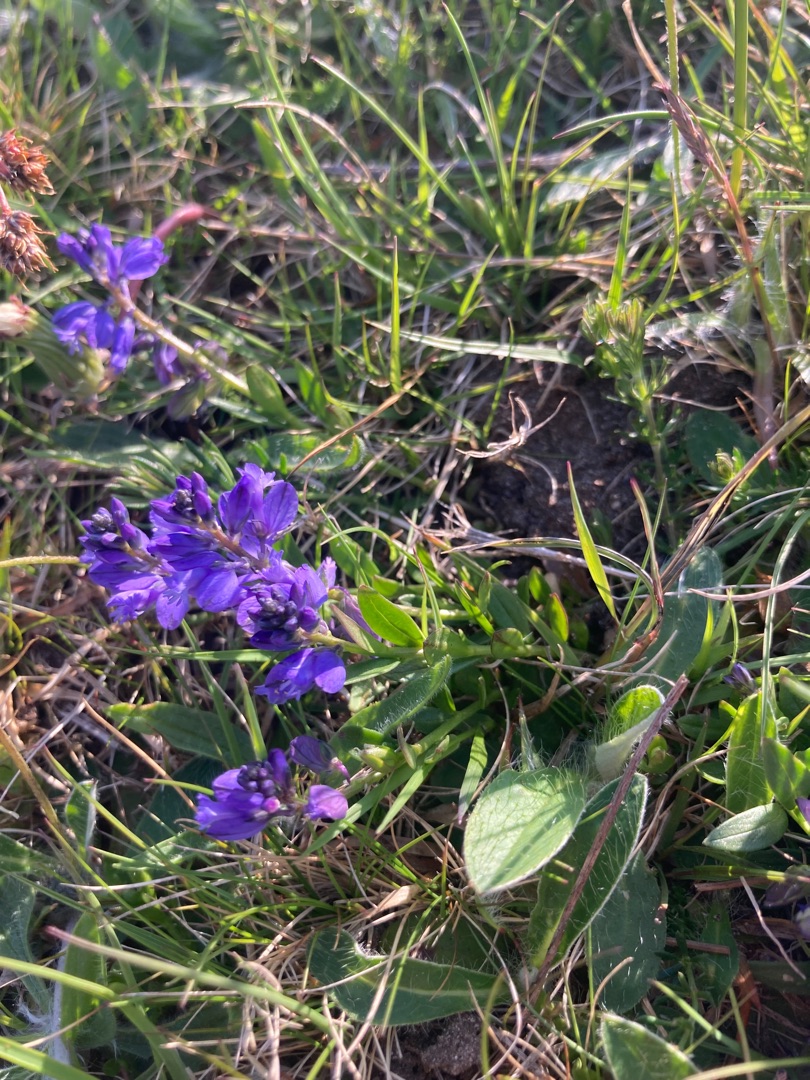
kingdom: Plantae
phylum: Tracheophyta
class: Magnoliopsida
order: Fabales
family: Polygalaceae
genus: Polygala
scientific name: Polygala vulgaris
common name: Almindelig mælkeurt
